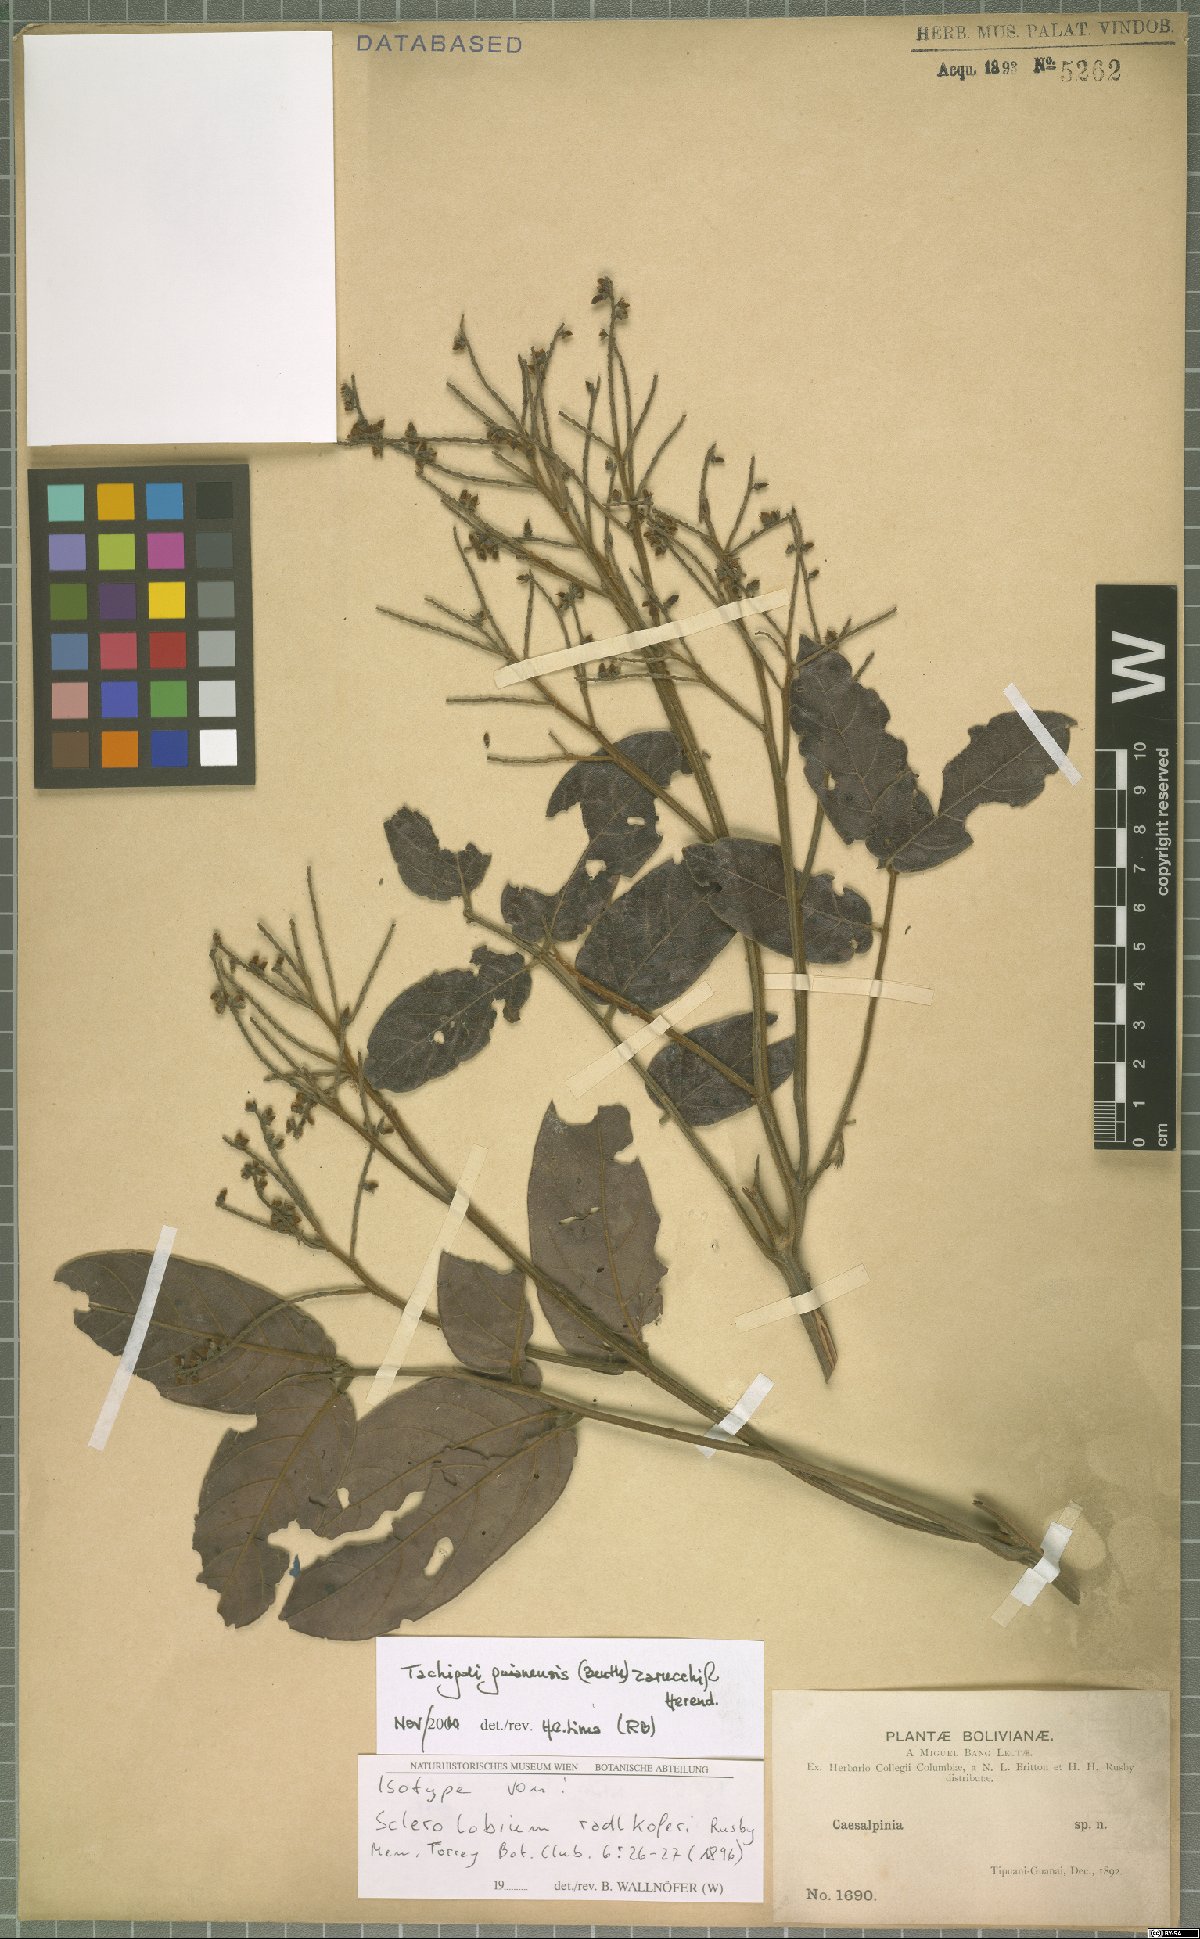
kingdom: Plantae
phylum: Tracheophyta
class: Magnoliopsida
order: Fabales
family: Fabaceae
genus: Tachigali
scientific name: Tachigali guianensis
